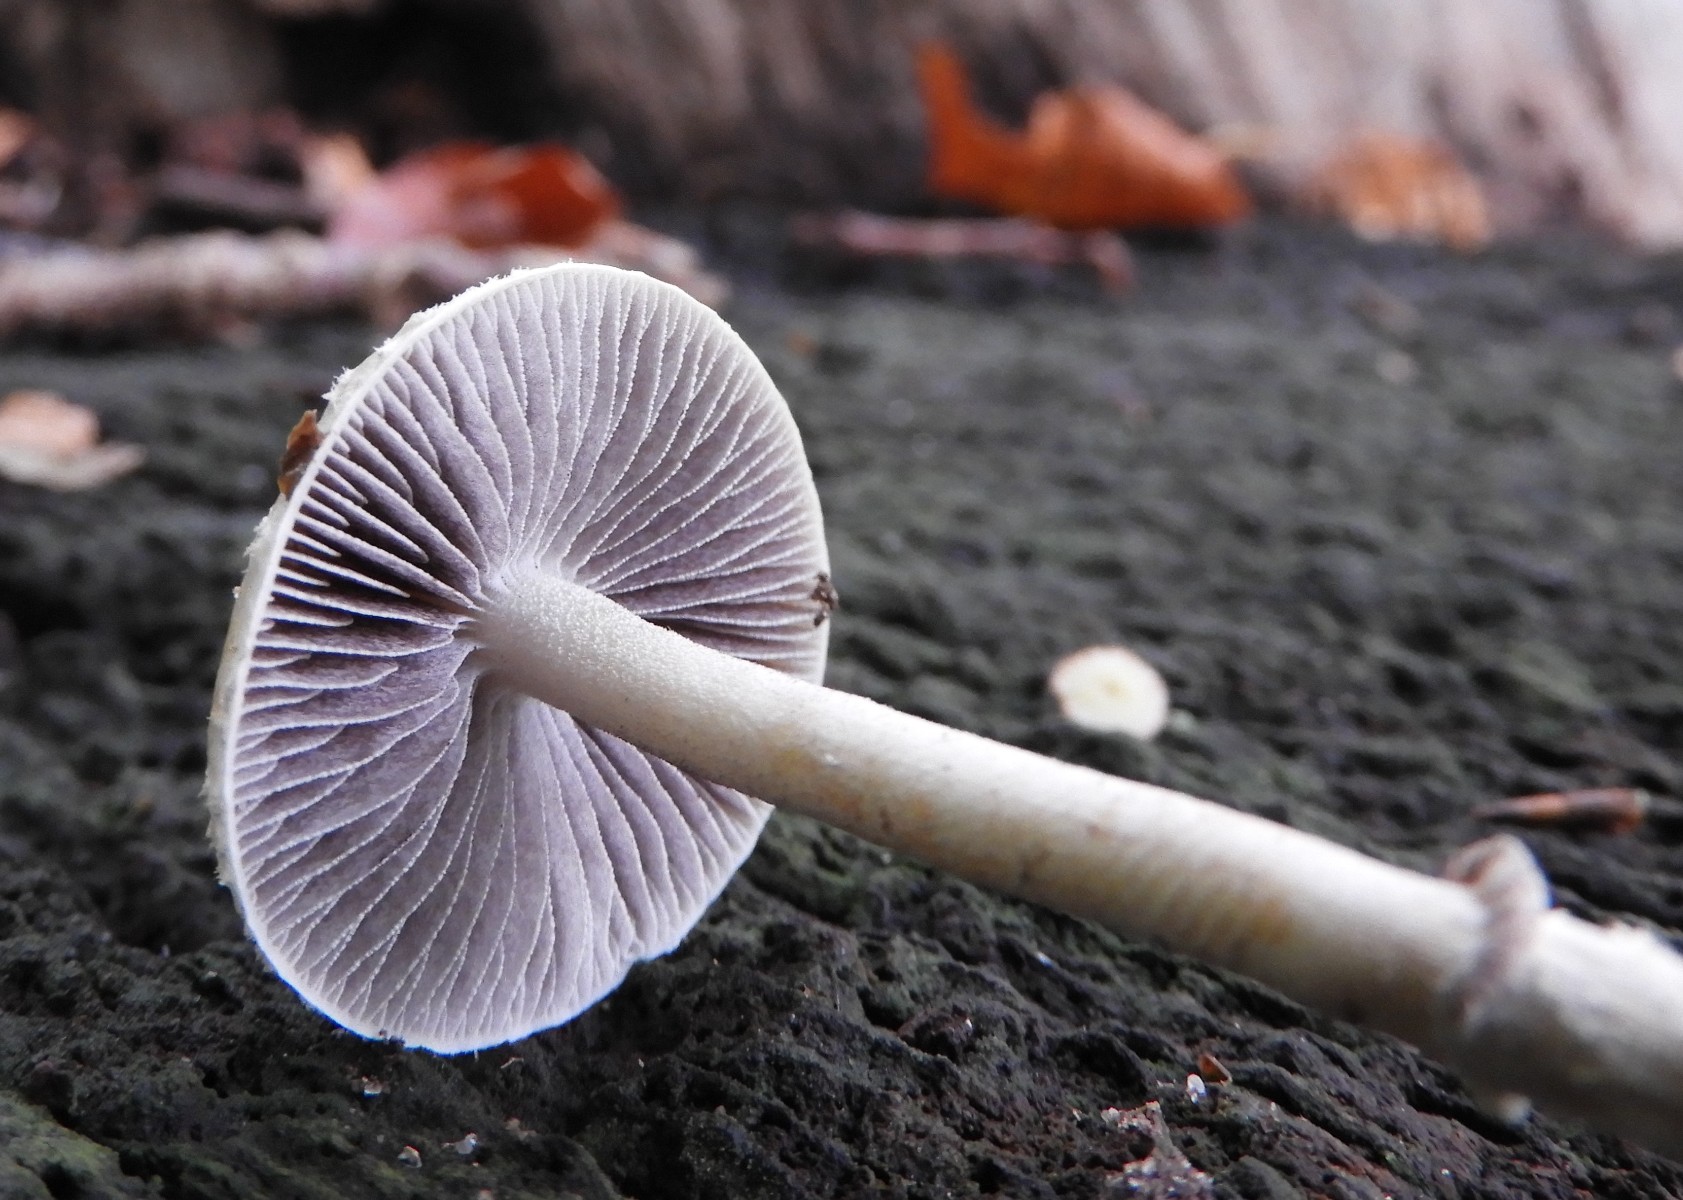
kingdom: Fungi
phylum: Basidiomycota
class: Agaricomycetes
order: Agaricales
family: Strophariaceae
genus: Leratiomyces
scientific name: Leratiomyces squamosus
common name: skællet bredblad
